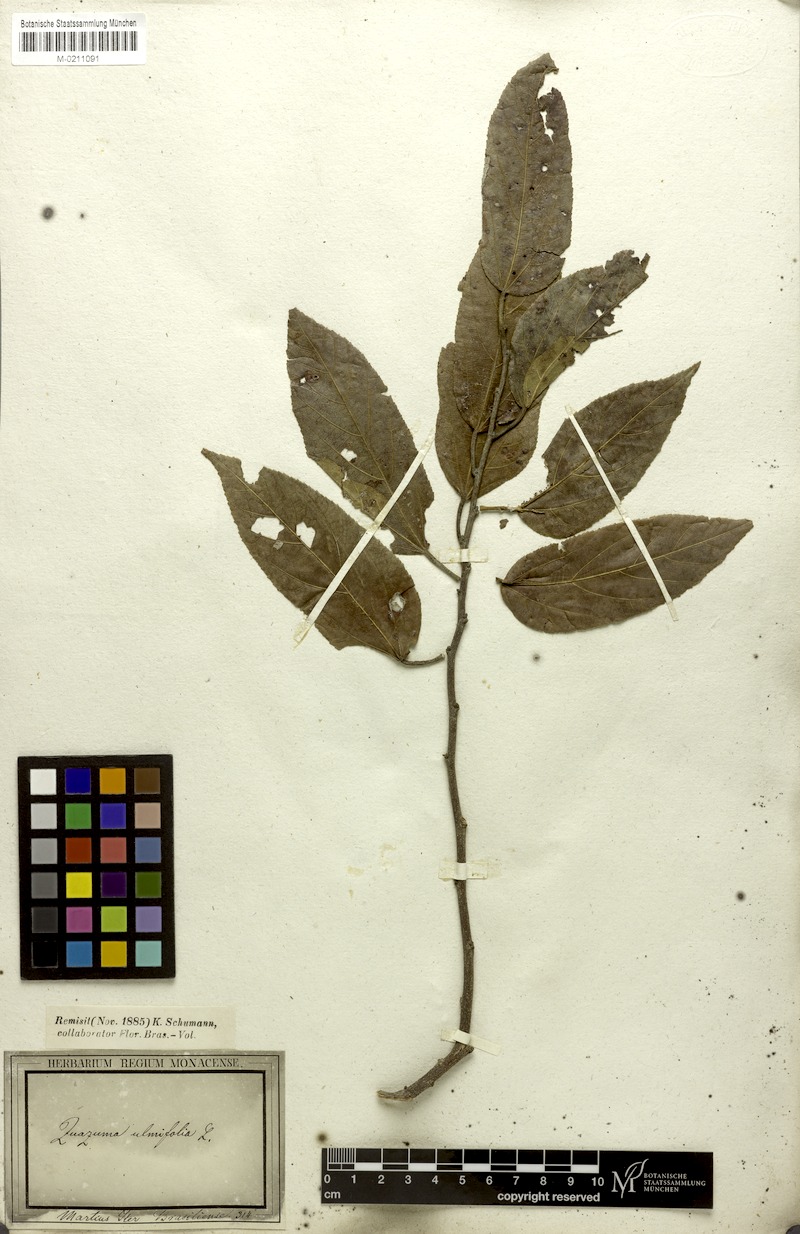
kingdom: Plantae
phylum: Tracheophyta
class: Magnoliopsida
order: Malvales
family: Malvaceae
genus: Guazuma
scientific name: Guazuma ulmifolia
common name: Bastard-cedar
